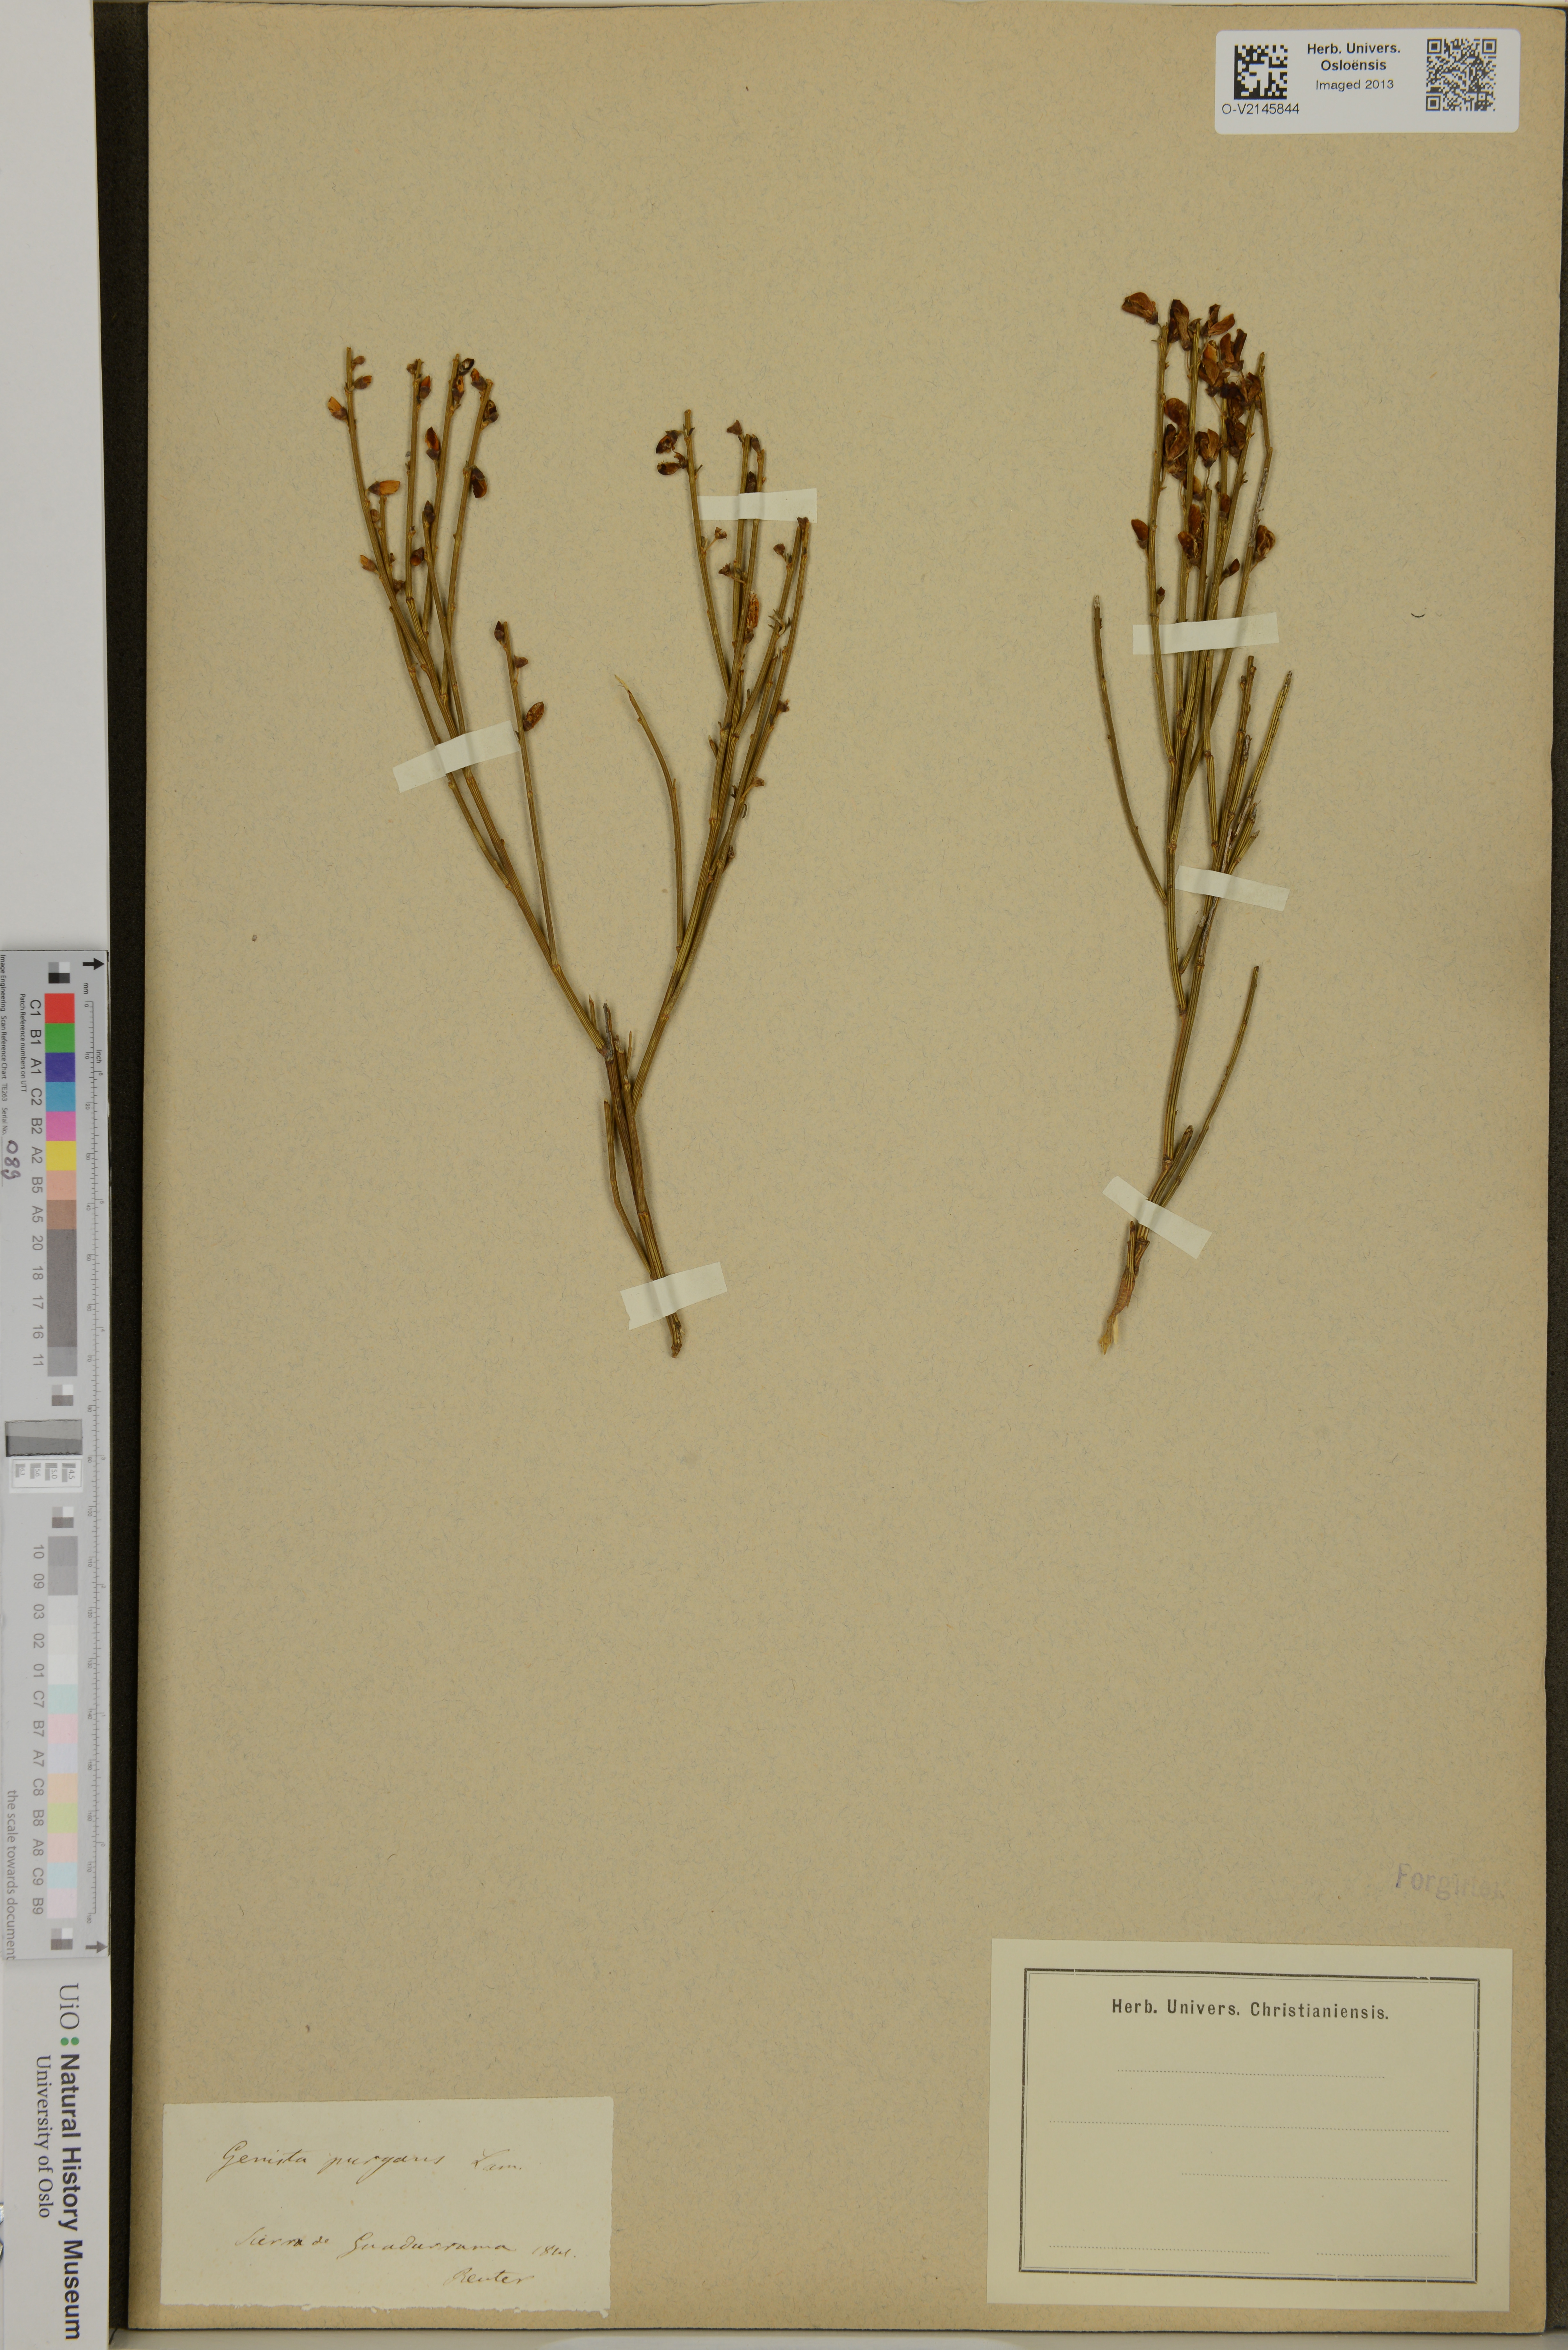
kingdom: Plantae
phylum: Tracheophyta
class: Magnoliopsida
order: Fabales
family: Fabaceae
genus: Genista
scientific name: Genista scorpius
